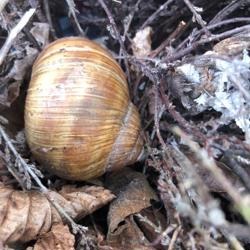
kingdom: Animalia
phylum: Mollusca
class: Gastropoda
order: Stylommatophora
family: Helicidae
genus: Helix
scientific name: Helix pomatia
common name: Vinbjergsnegl
